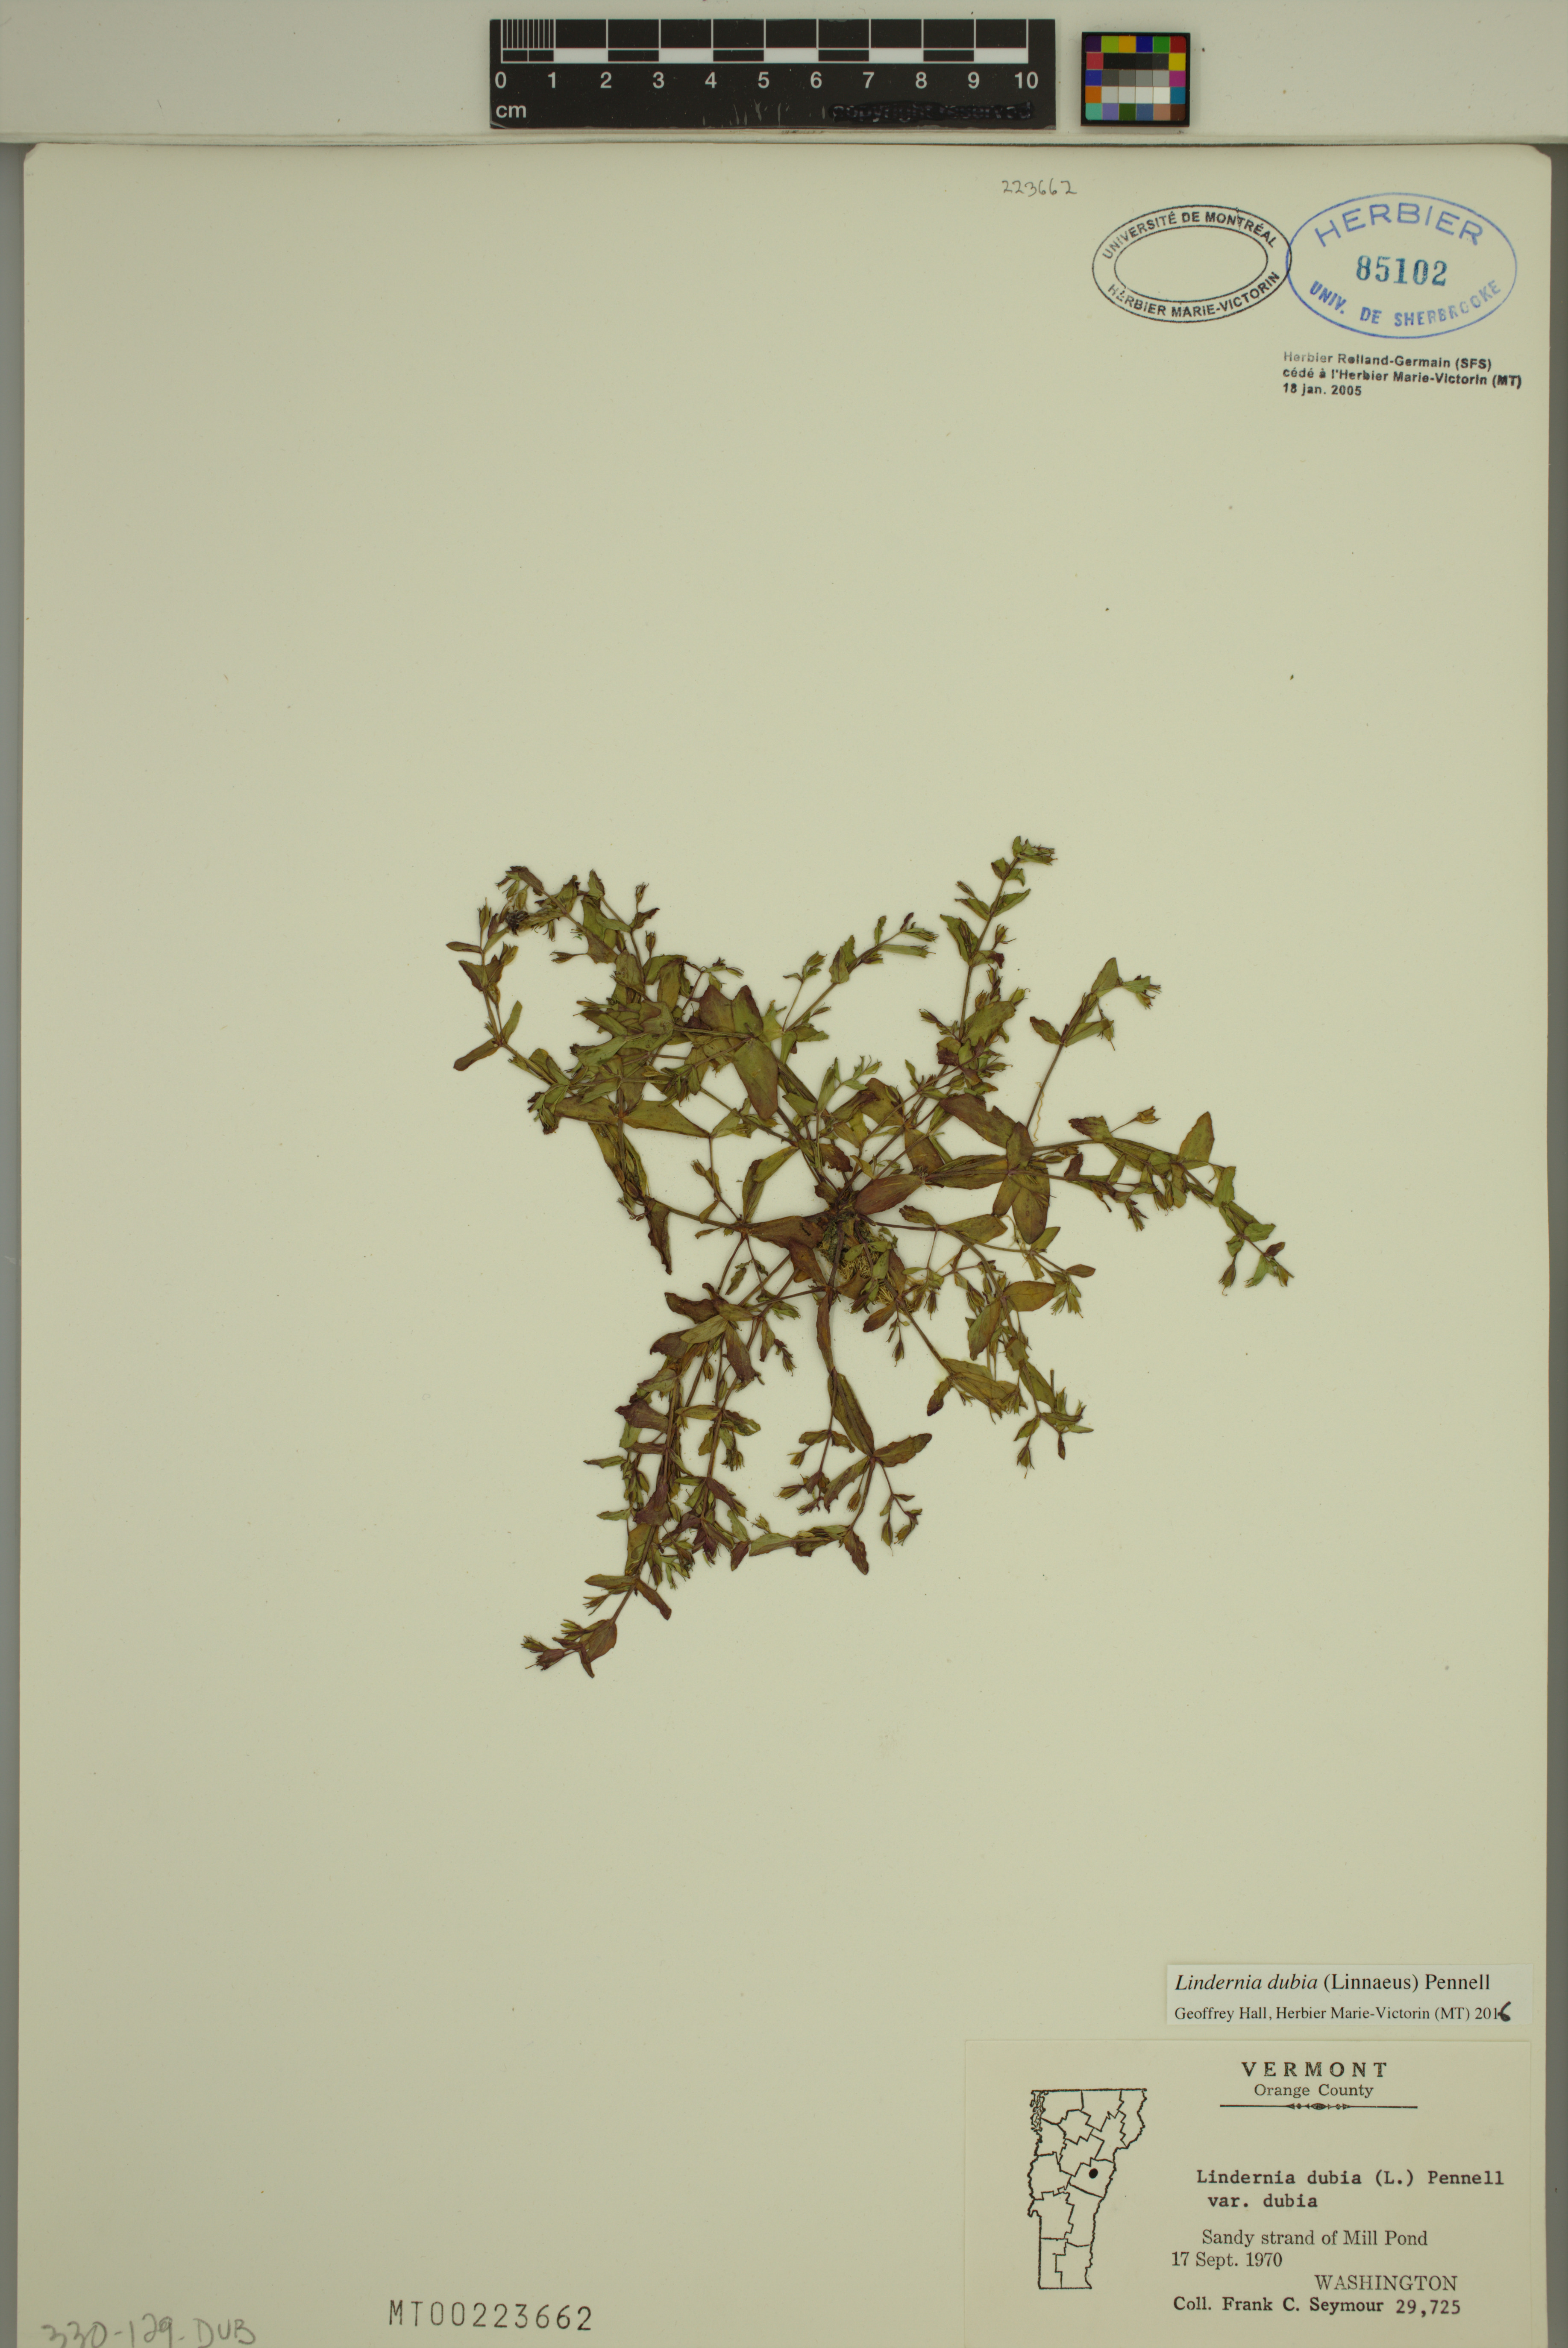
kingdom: Plantae
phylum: Tracheophyta
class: Magnoliopsida
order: Lamiales
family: Linderniaceae
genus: Lindernia
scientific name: Lindernia dubia
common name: Annual false pimpernel
